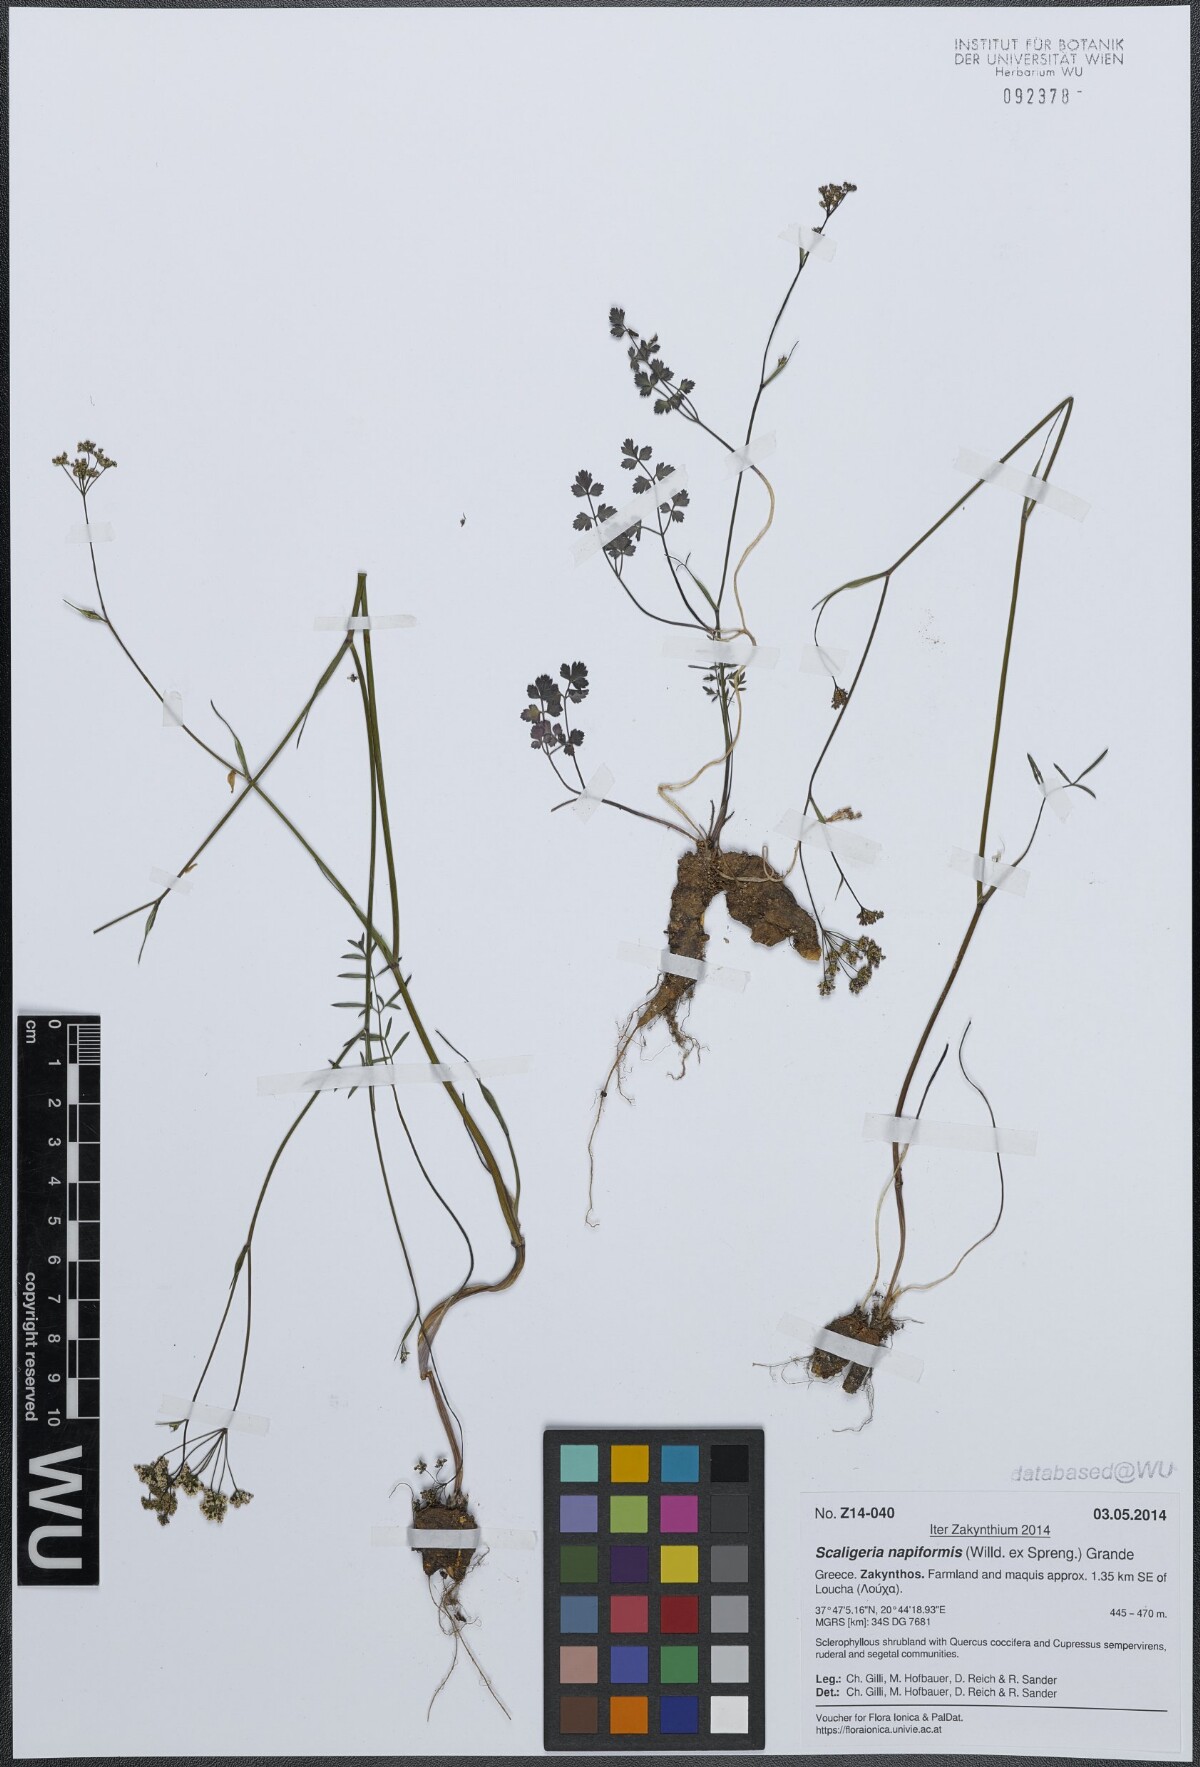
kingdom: Plantae
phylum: Tracheophyta
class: Magnoliopsida
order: Apiales
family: Apiaceae
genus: Scaligeria
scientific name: Scaligeria napiformis
